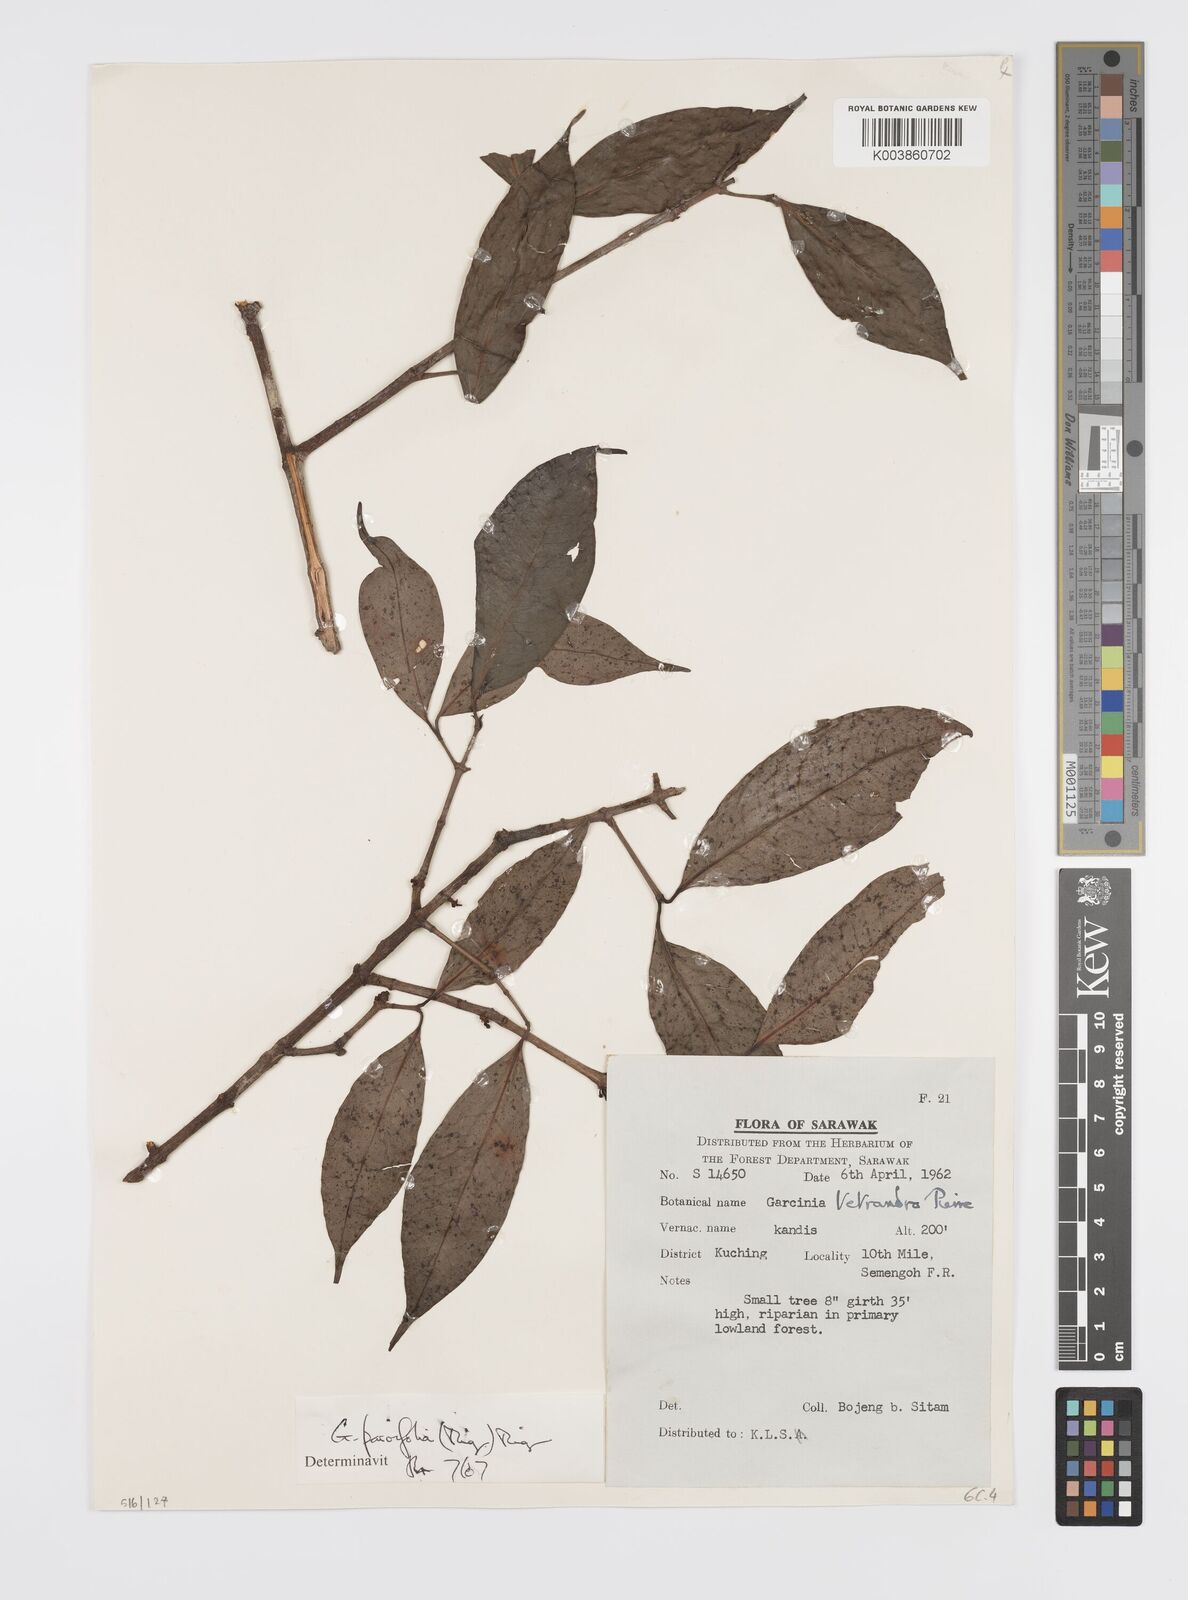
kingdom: Plantae
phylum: Tracheophyta
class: Magnoliopsida
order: Malpighiales
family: Clusiaceae
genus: Garcinia
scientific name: Garcinia parvifolia
